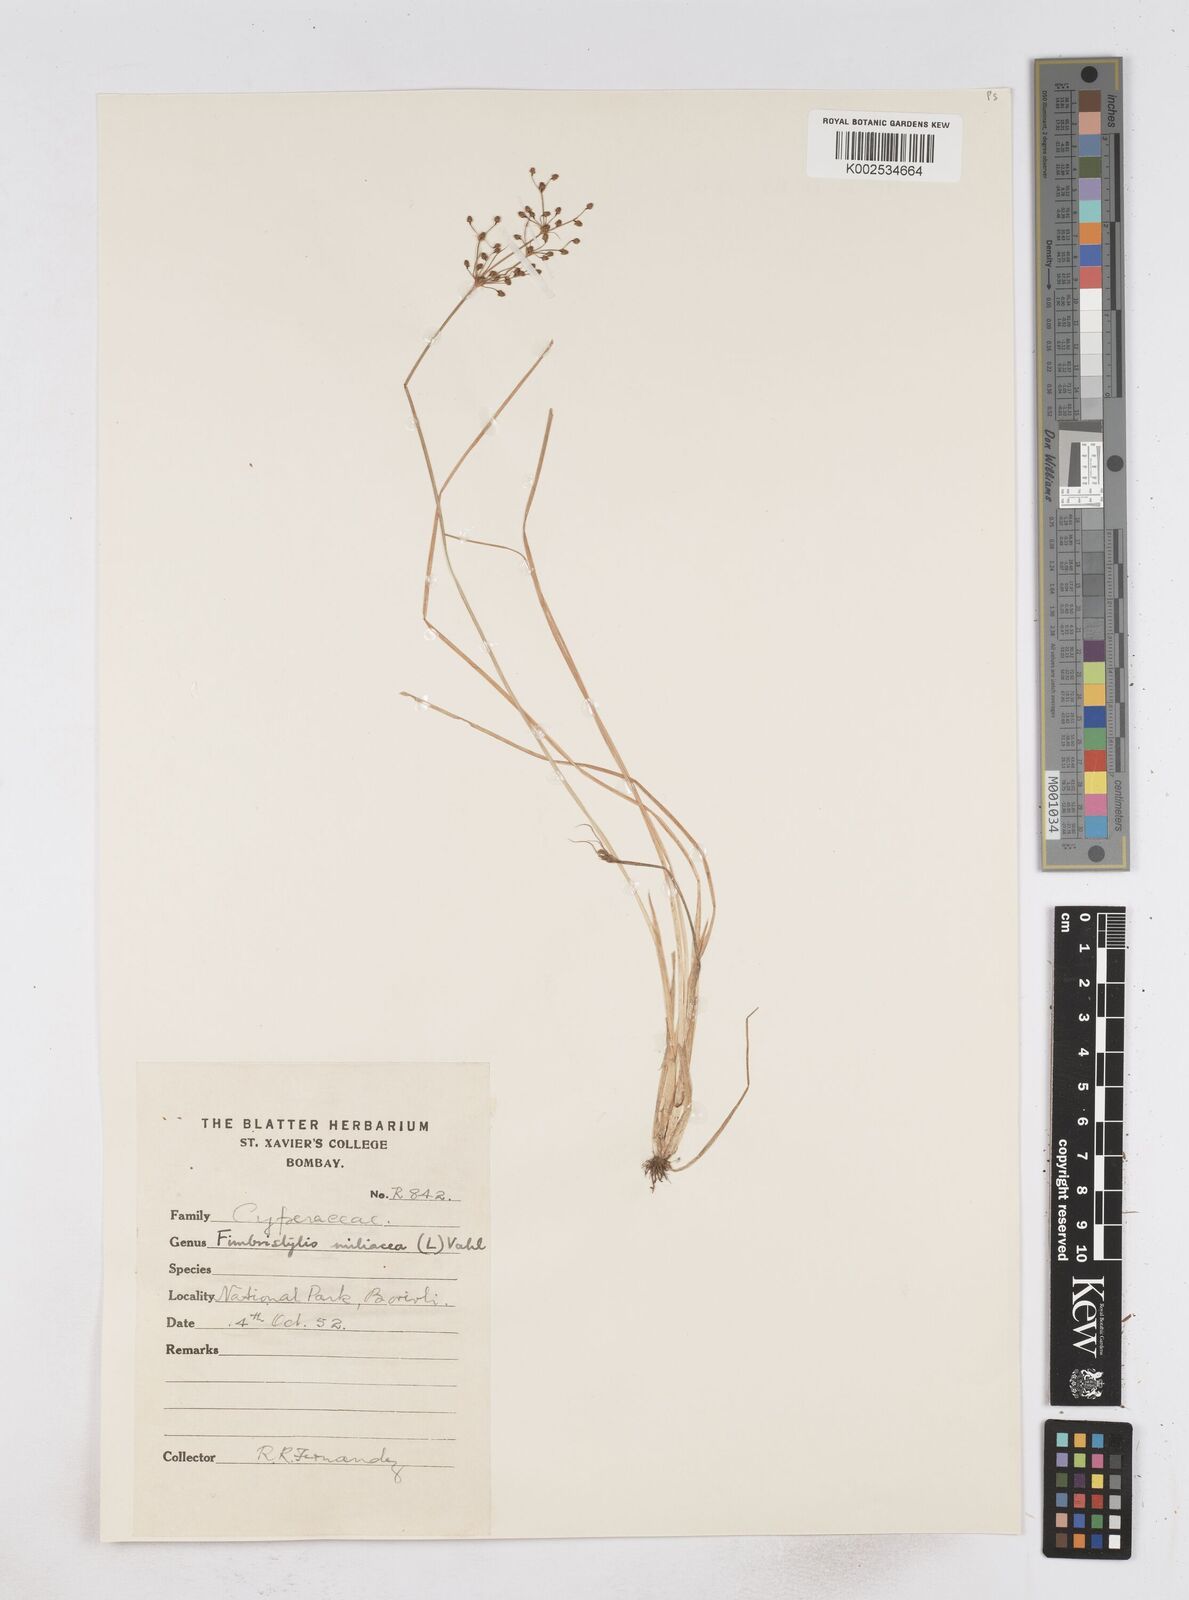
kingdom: Plantae
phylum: Tracheophyta
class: Liliopsida
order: Poales
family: Cyperaceae
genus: Fimbristylis
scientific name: Fimbristylis littoralis
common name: Fimbry
